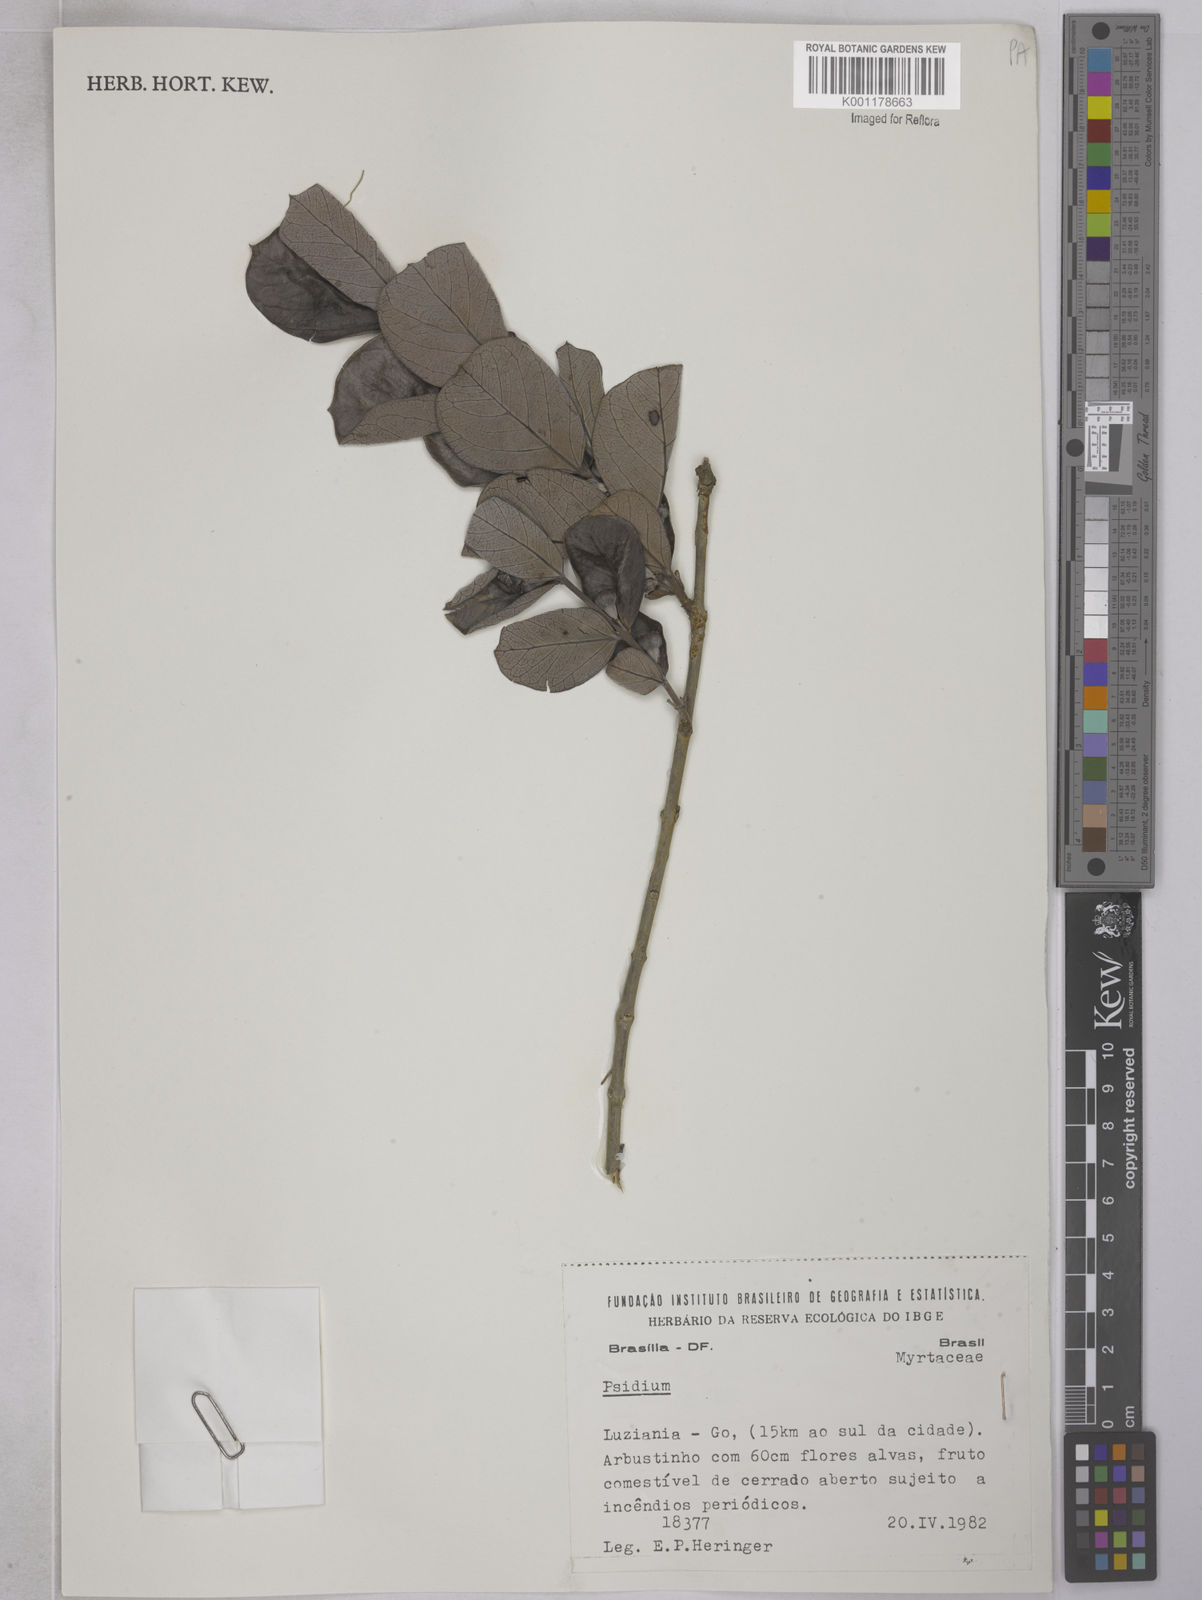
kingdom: Plantae
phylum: Tracheophyta
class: Magnoliopsida
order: Myrtales
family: Myrtaceae
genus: Psidium
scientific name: Psidium grandifolium
